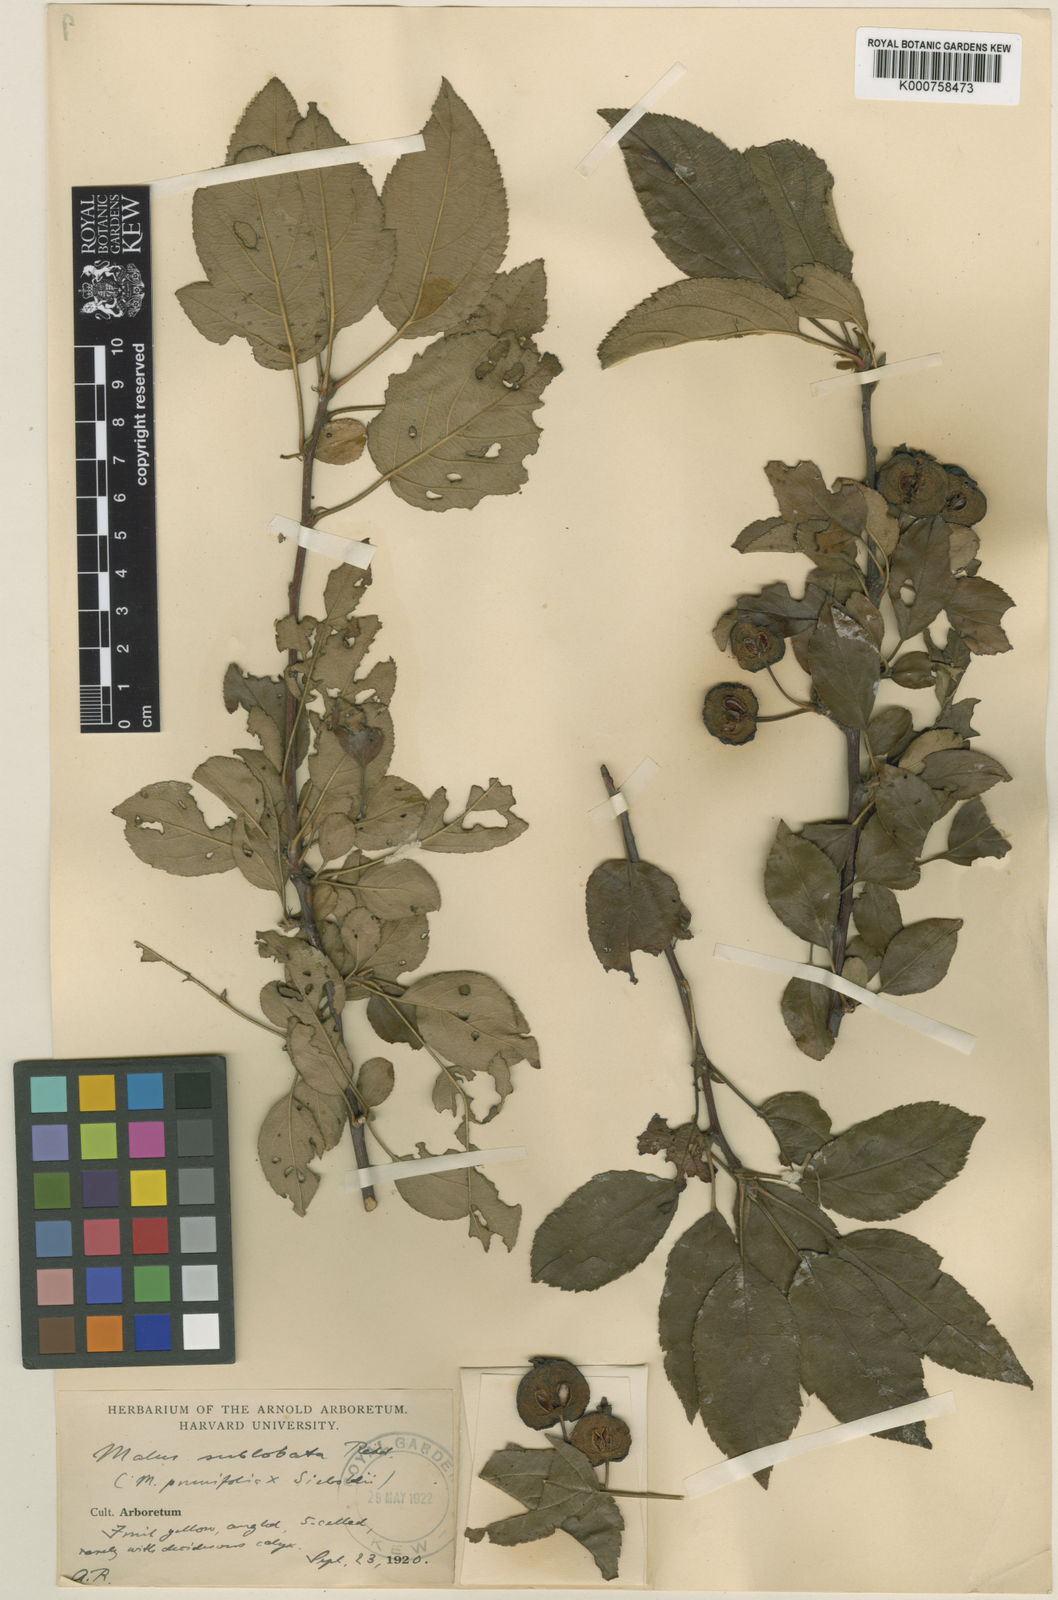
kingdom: Plantae
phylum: Tracheophyta
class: Magnoliopsida
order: Rosales
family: Rosaceae
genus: Malus
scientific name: Malus sublobata
